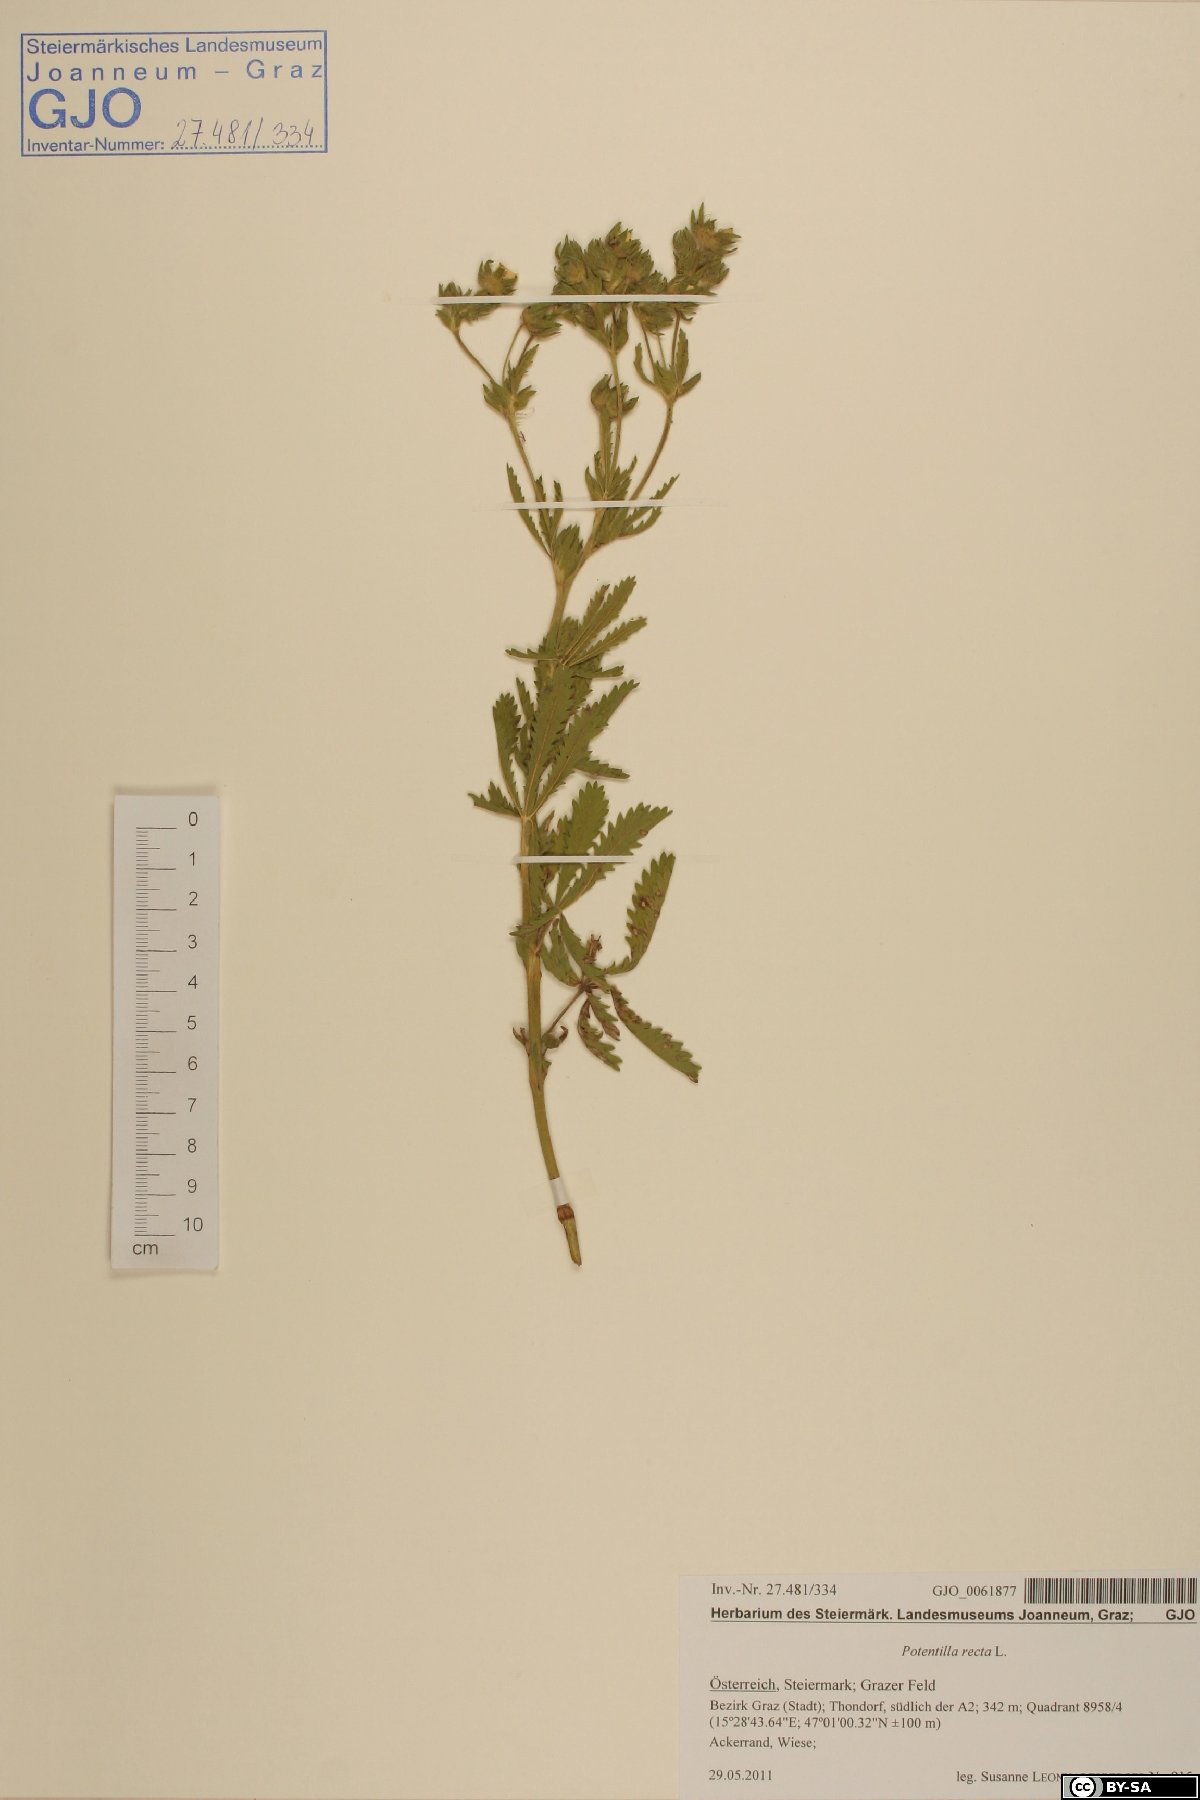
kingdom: Plantae
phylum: Tracheophyta
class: Magnoliopsida
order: Rosales
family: Rosaceae
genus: Potentilla
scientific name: Potentilla recta
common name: Sulphur cinquefoil
